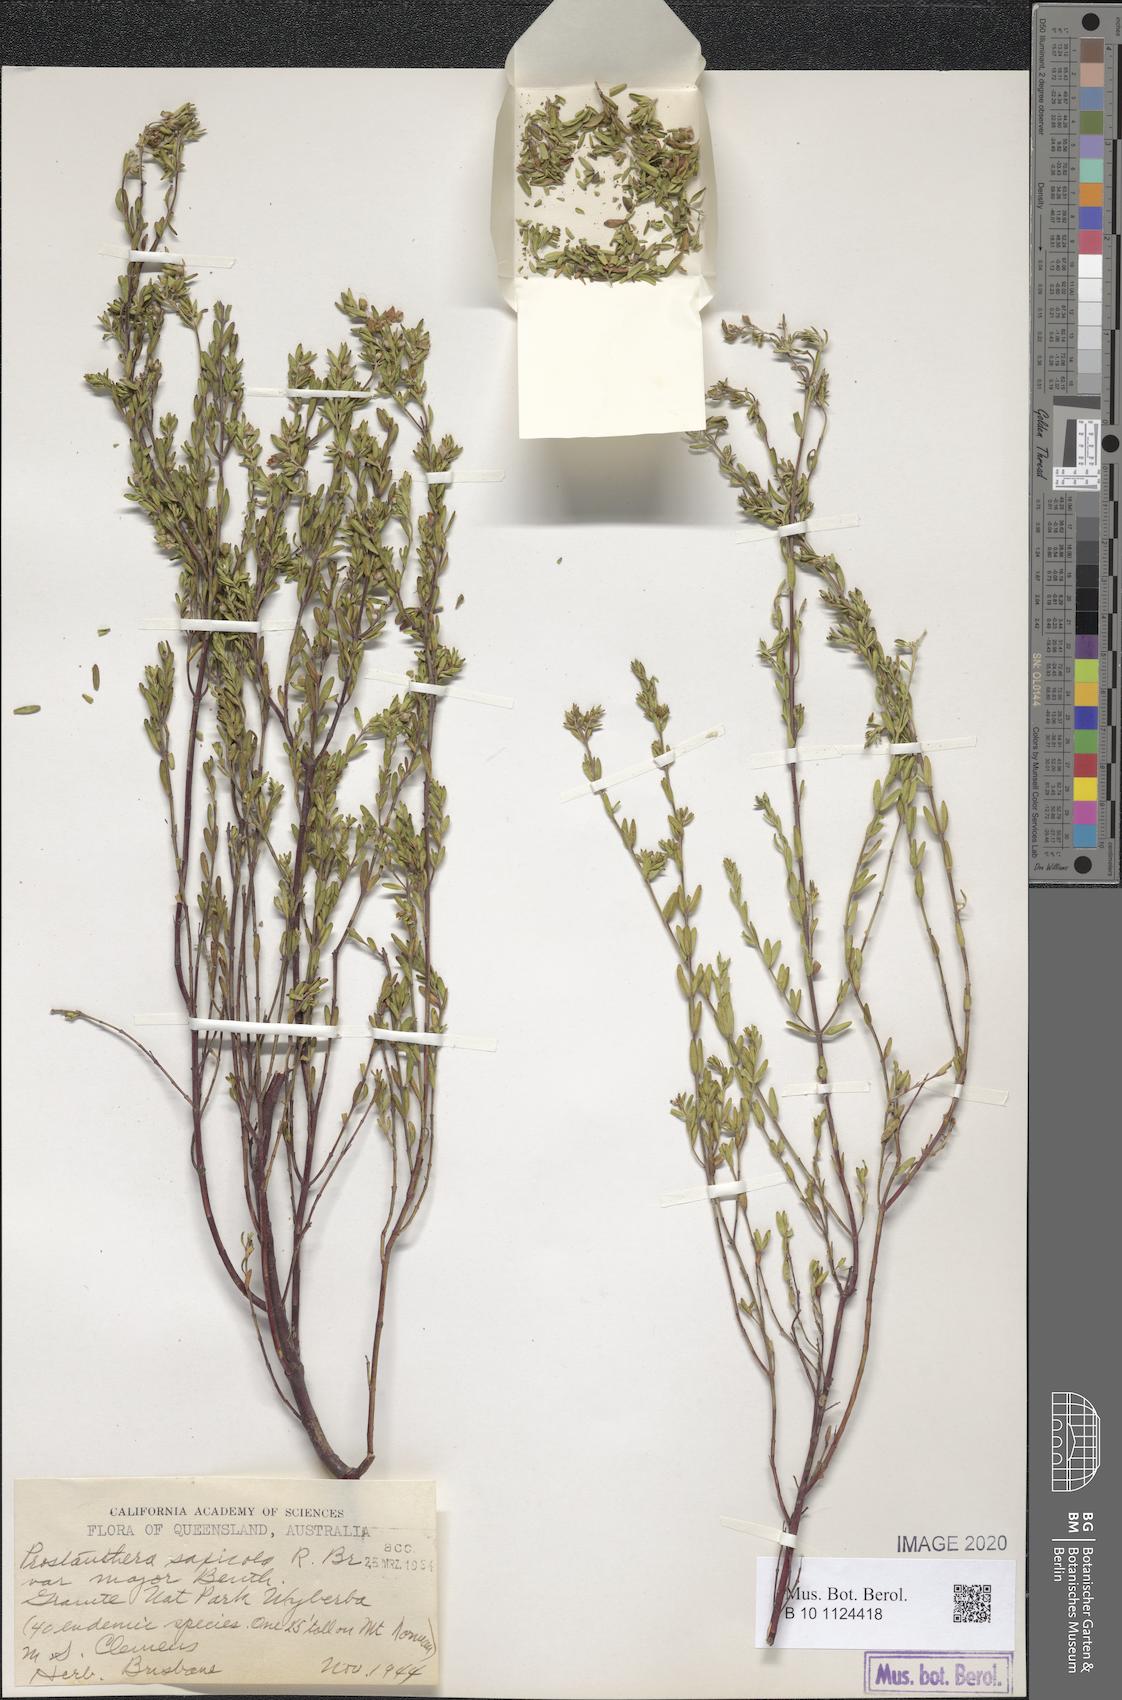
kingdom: Plantae
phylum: Tracheophyta
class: Magnoliopsida
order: Lamiales
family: Lamiaceae
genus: Prostanthera
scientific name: Prostanthera saxicola
